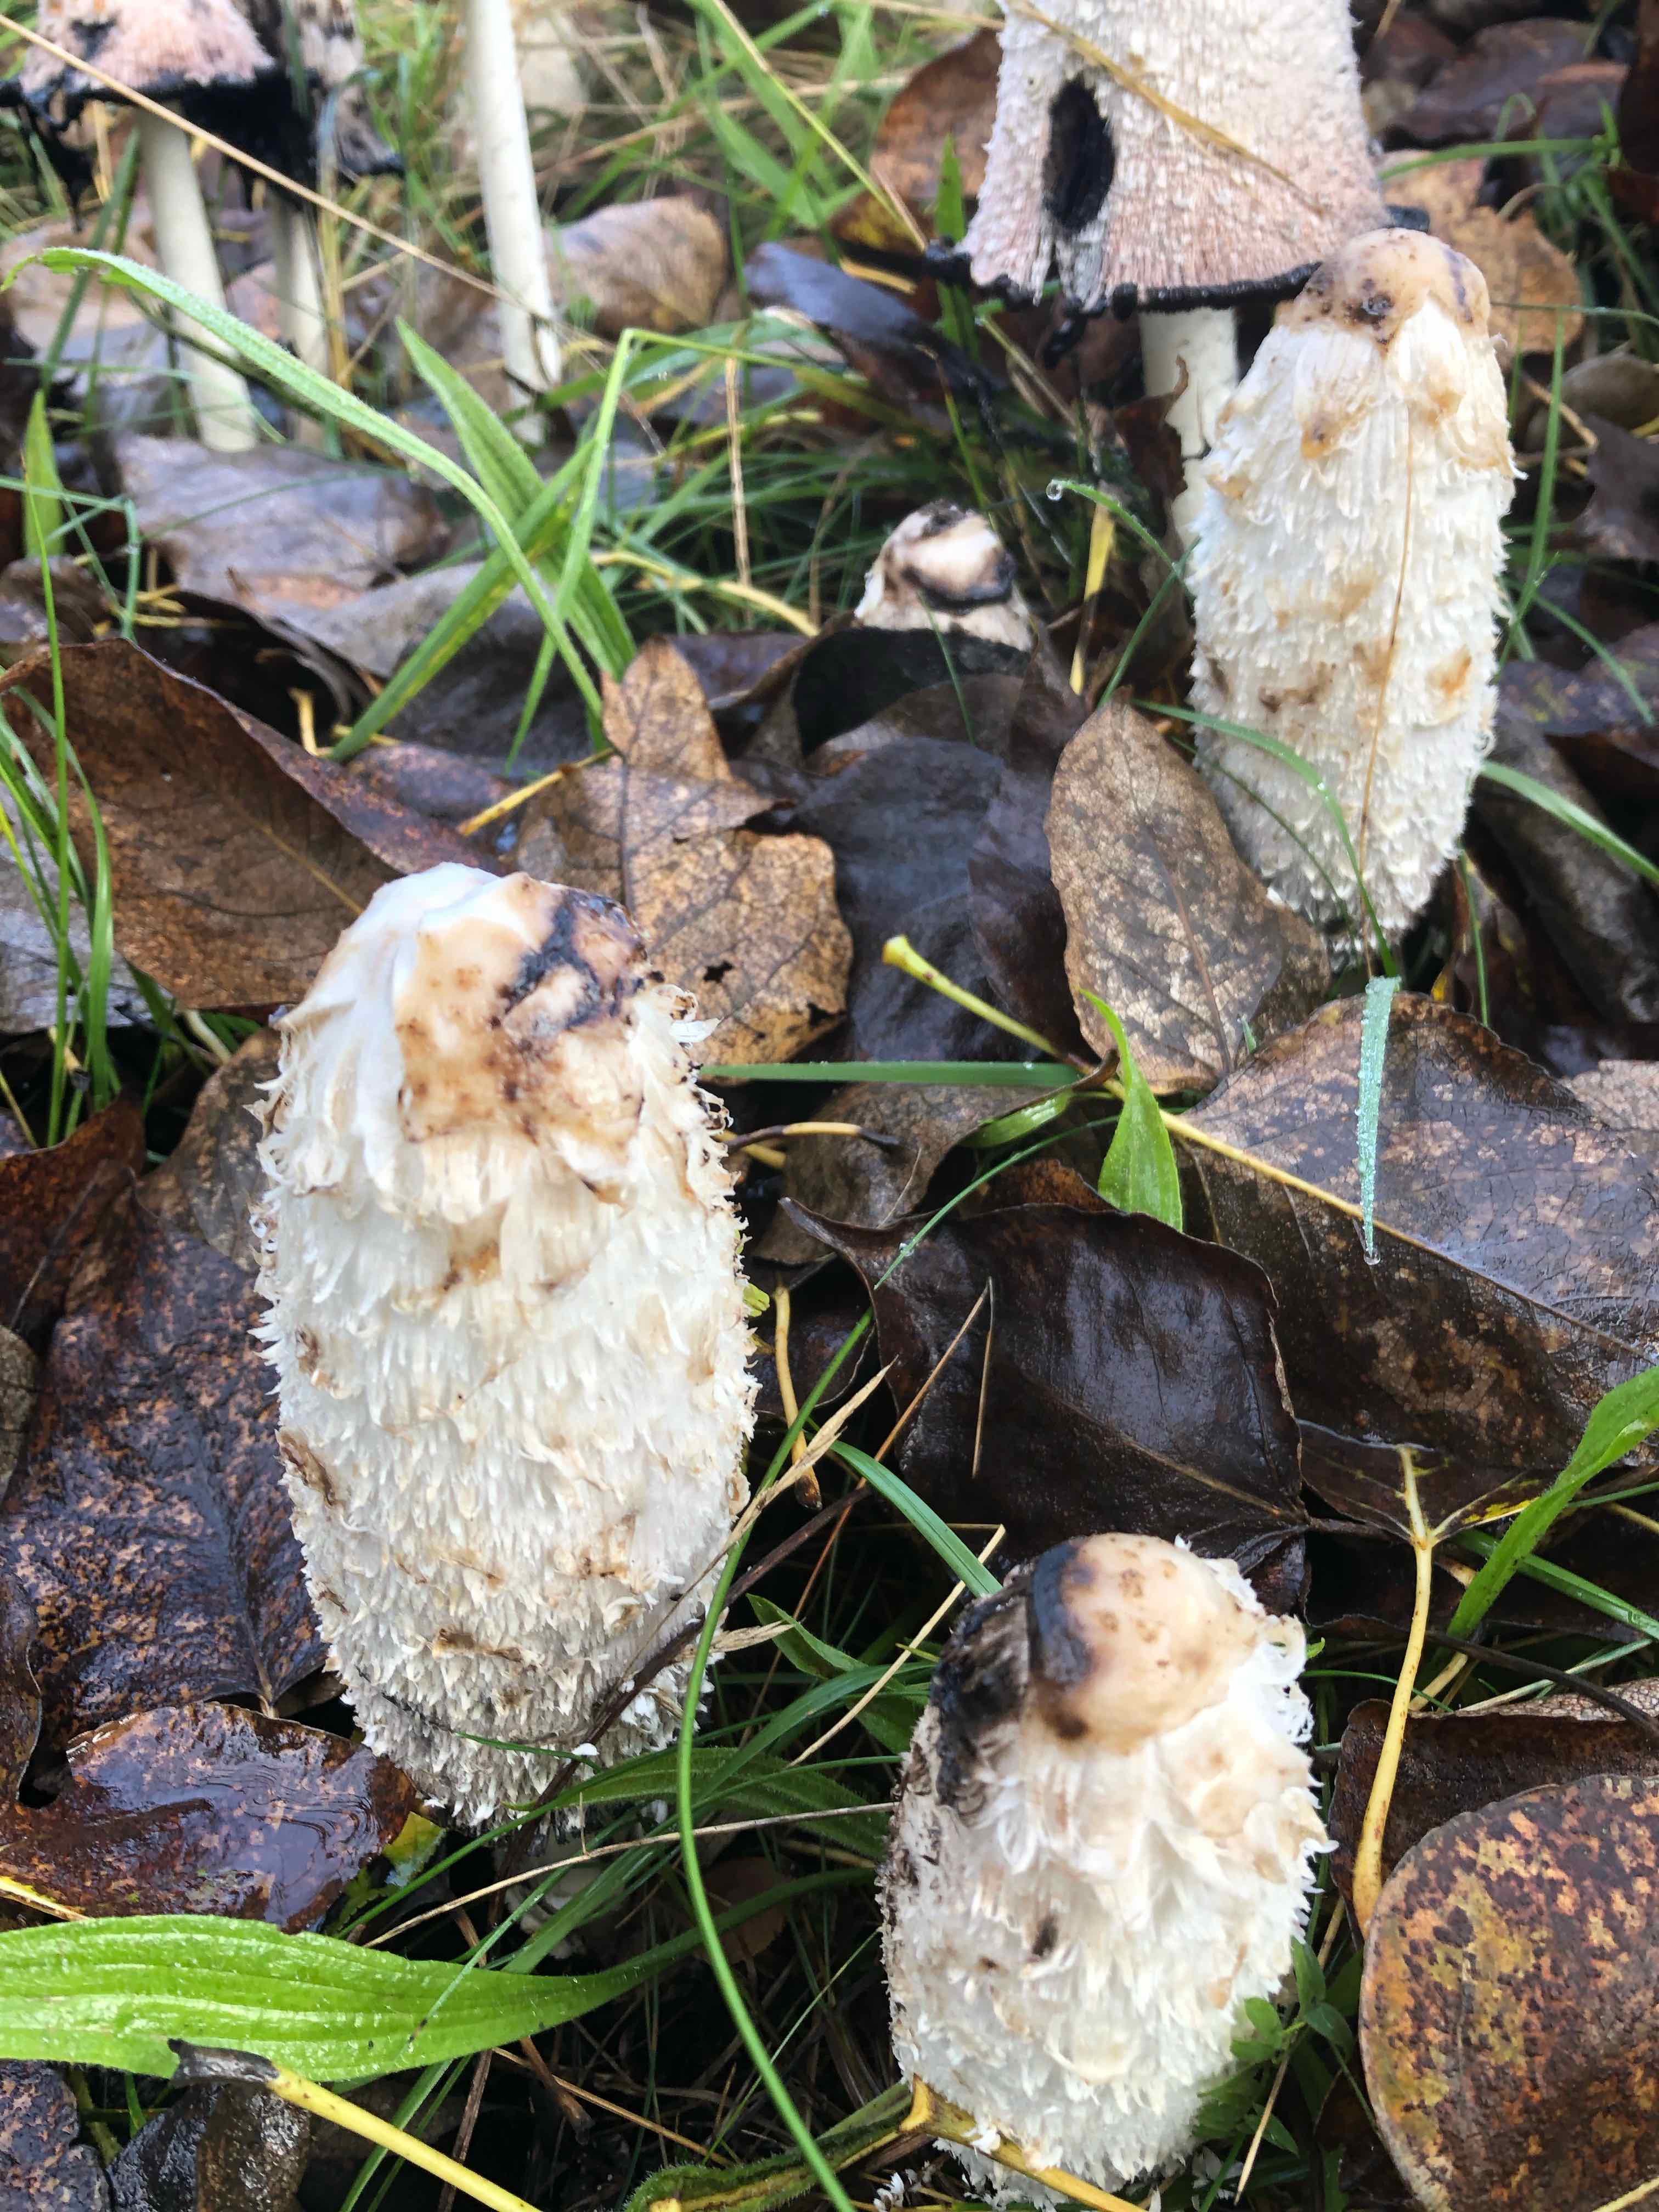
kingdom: Fungi
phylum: Basidiomycota
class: Agaricomycetes
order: Agaricales
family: Agaricaceae
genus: Coprinus
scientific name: Coprinus comatus
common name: stor parykhat
